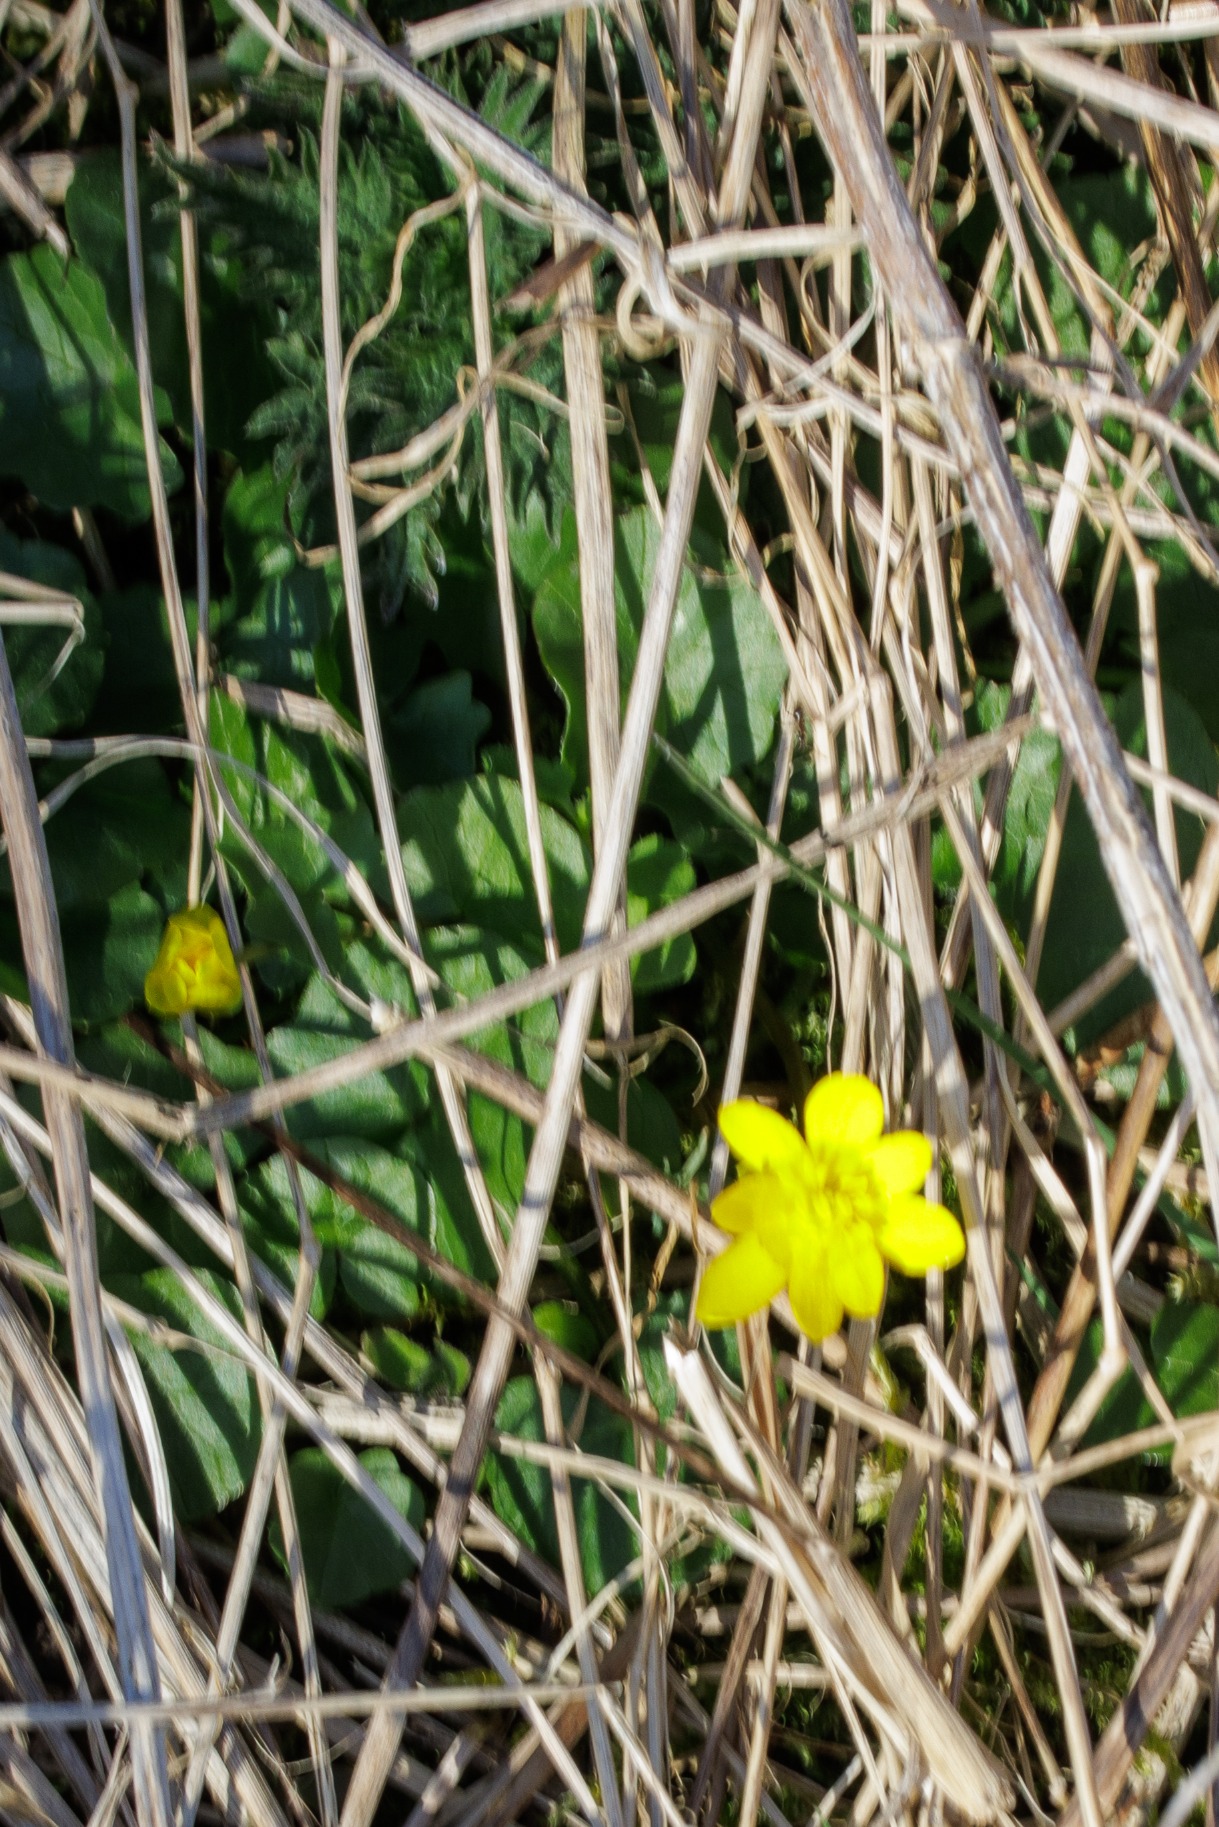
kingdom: Plantae
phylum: Tracheophyta
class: Magnoliopsida
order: Ranunculales
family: Ranunculaceae
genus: Ficaria
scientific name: Ficaria verna
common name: Vorterod
